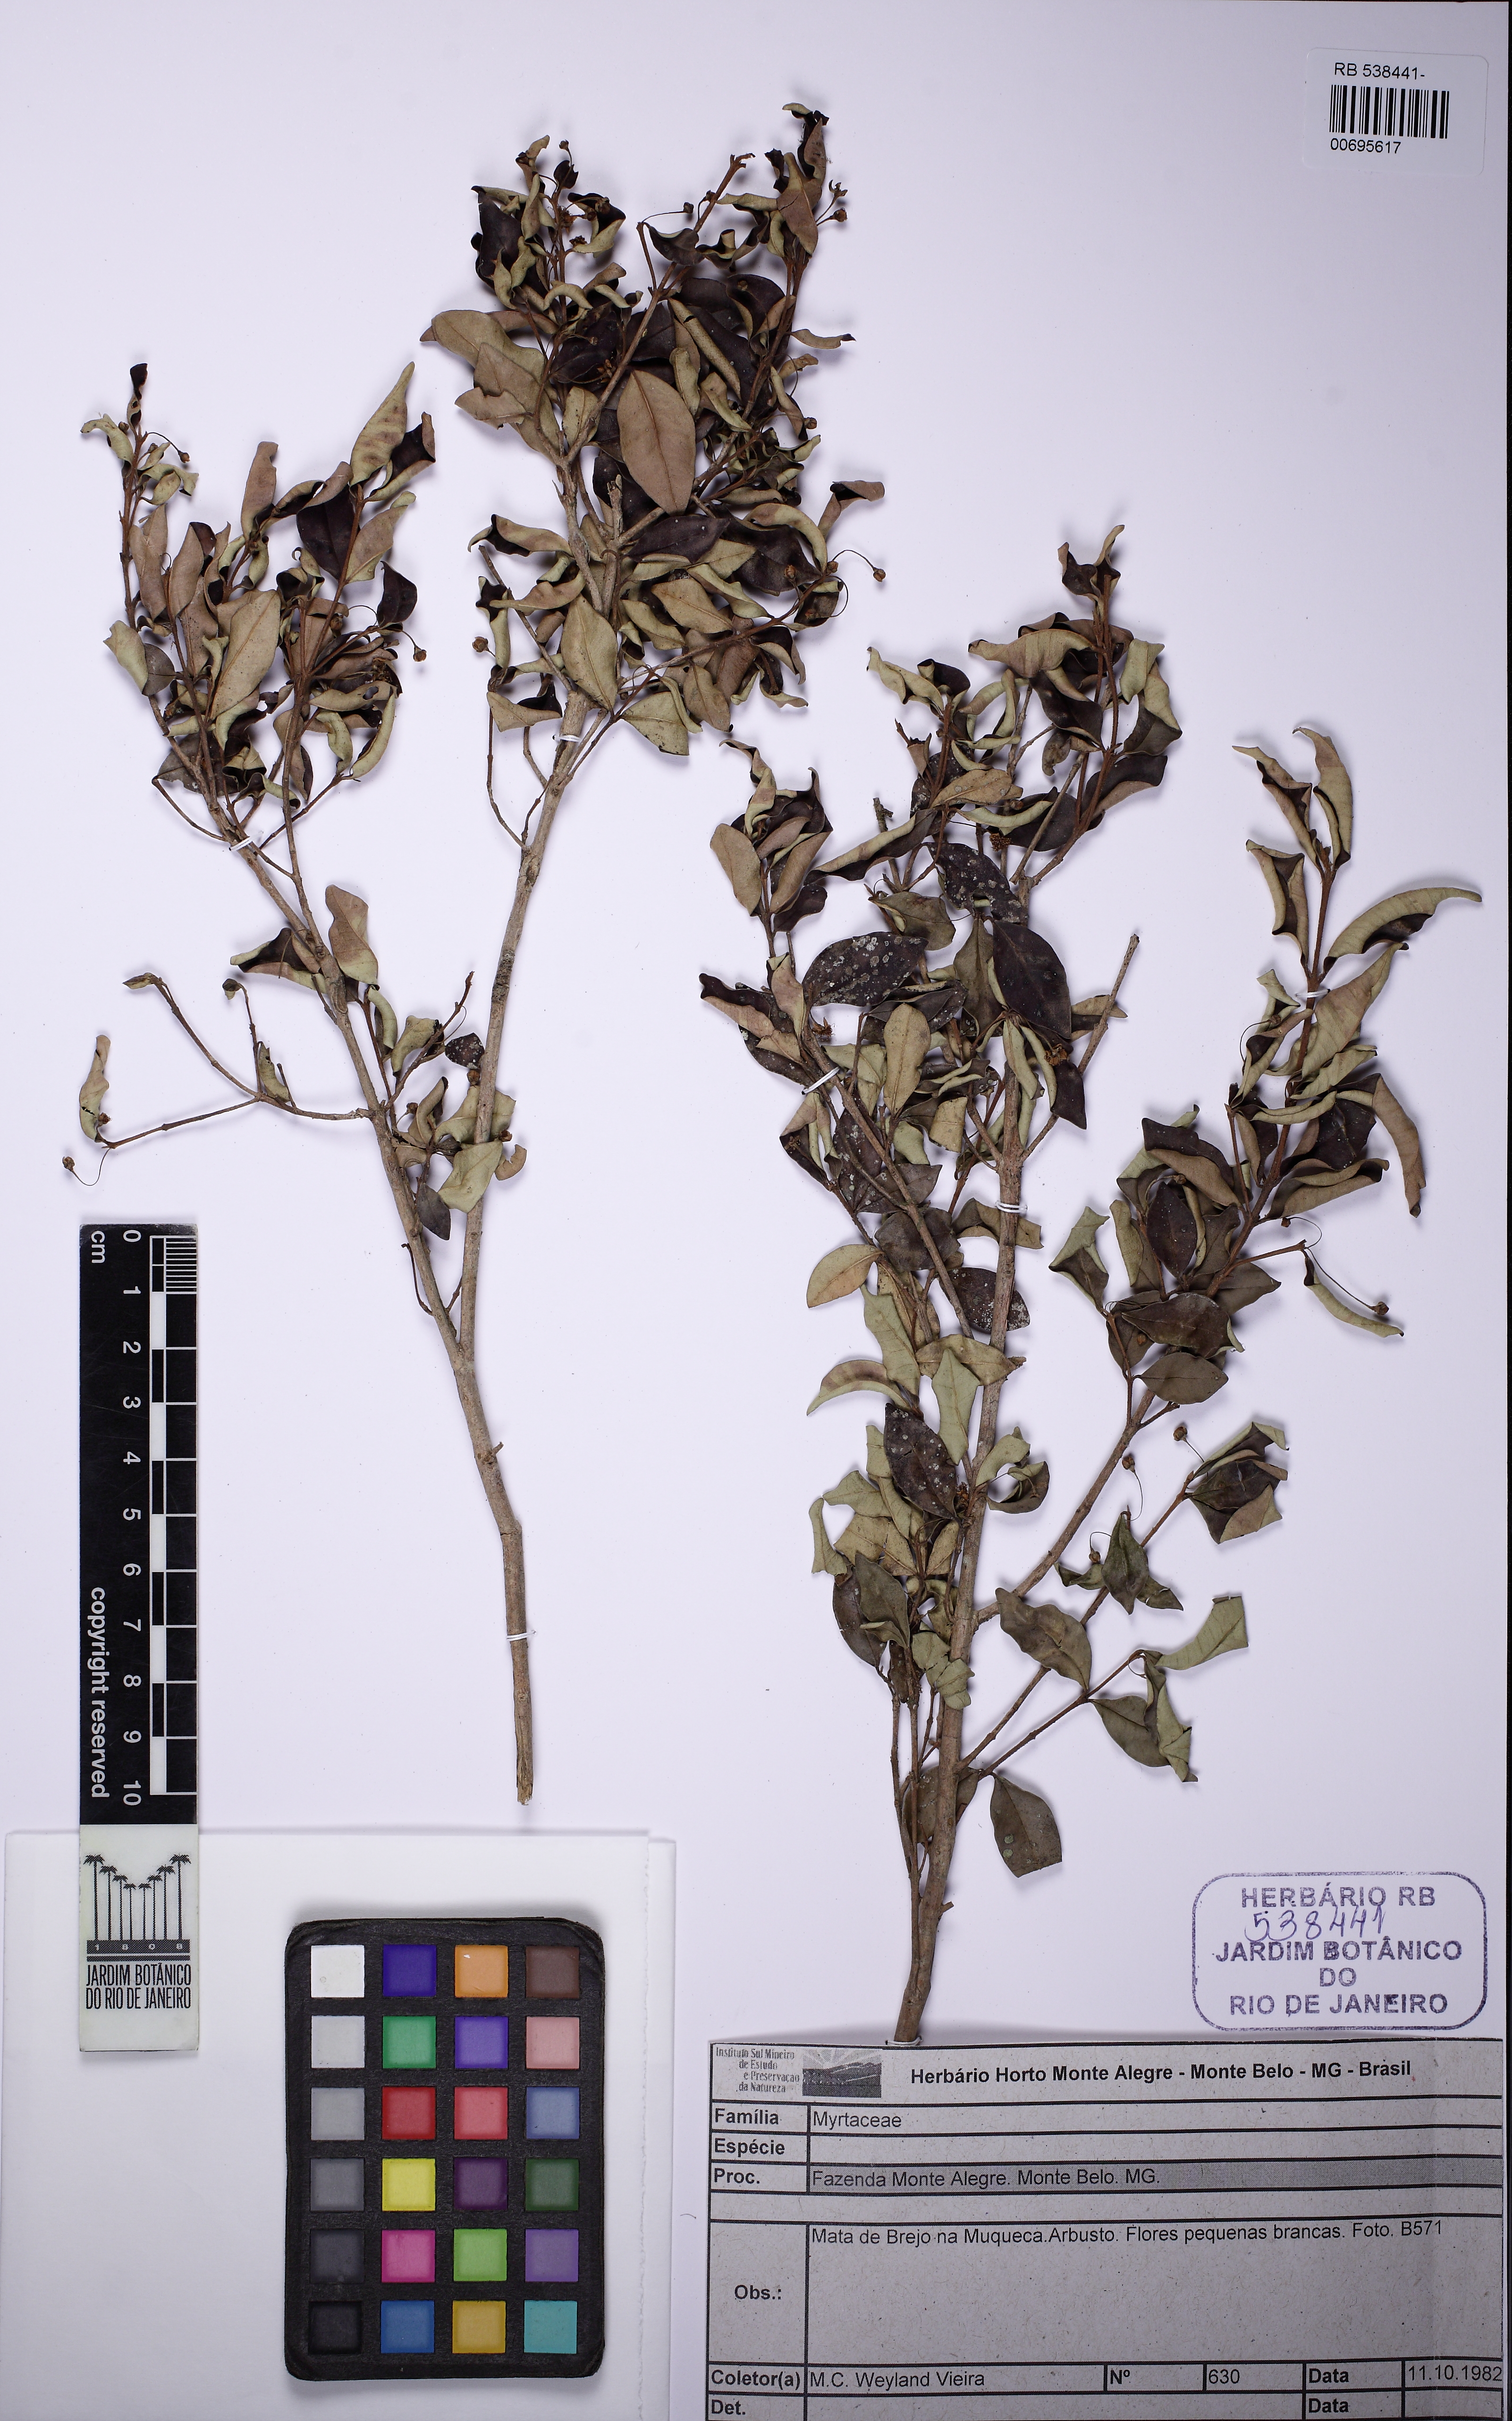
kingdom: Plantae
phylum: Tracheophyta
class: Magnoliopsida
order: Myrtales
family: Myrtaceae
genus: Myrceugenia
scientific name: Myrceugenia ovata
